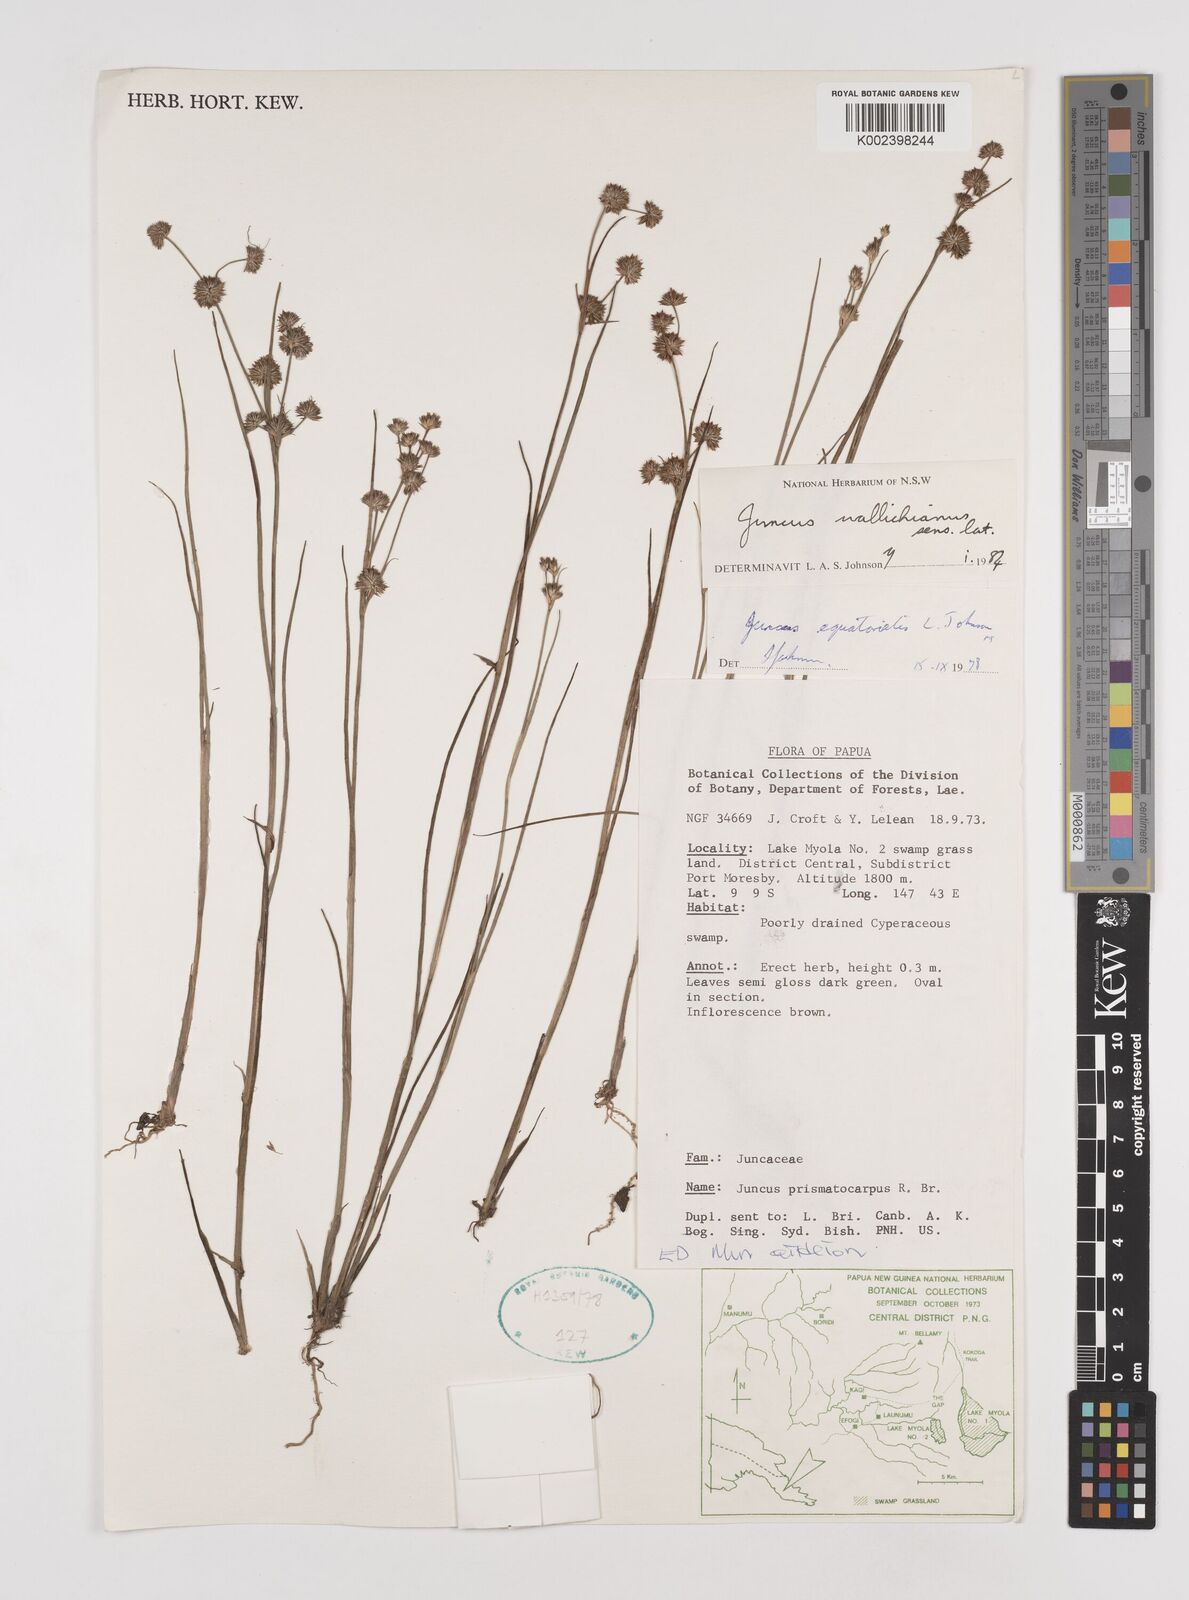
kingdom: Plantae
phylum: Tracheophyta
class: Liliopsida
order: Poales
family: Juncaceae
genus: Juncus
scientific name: Juncus wallichianus
